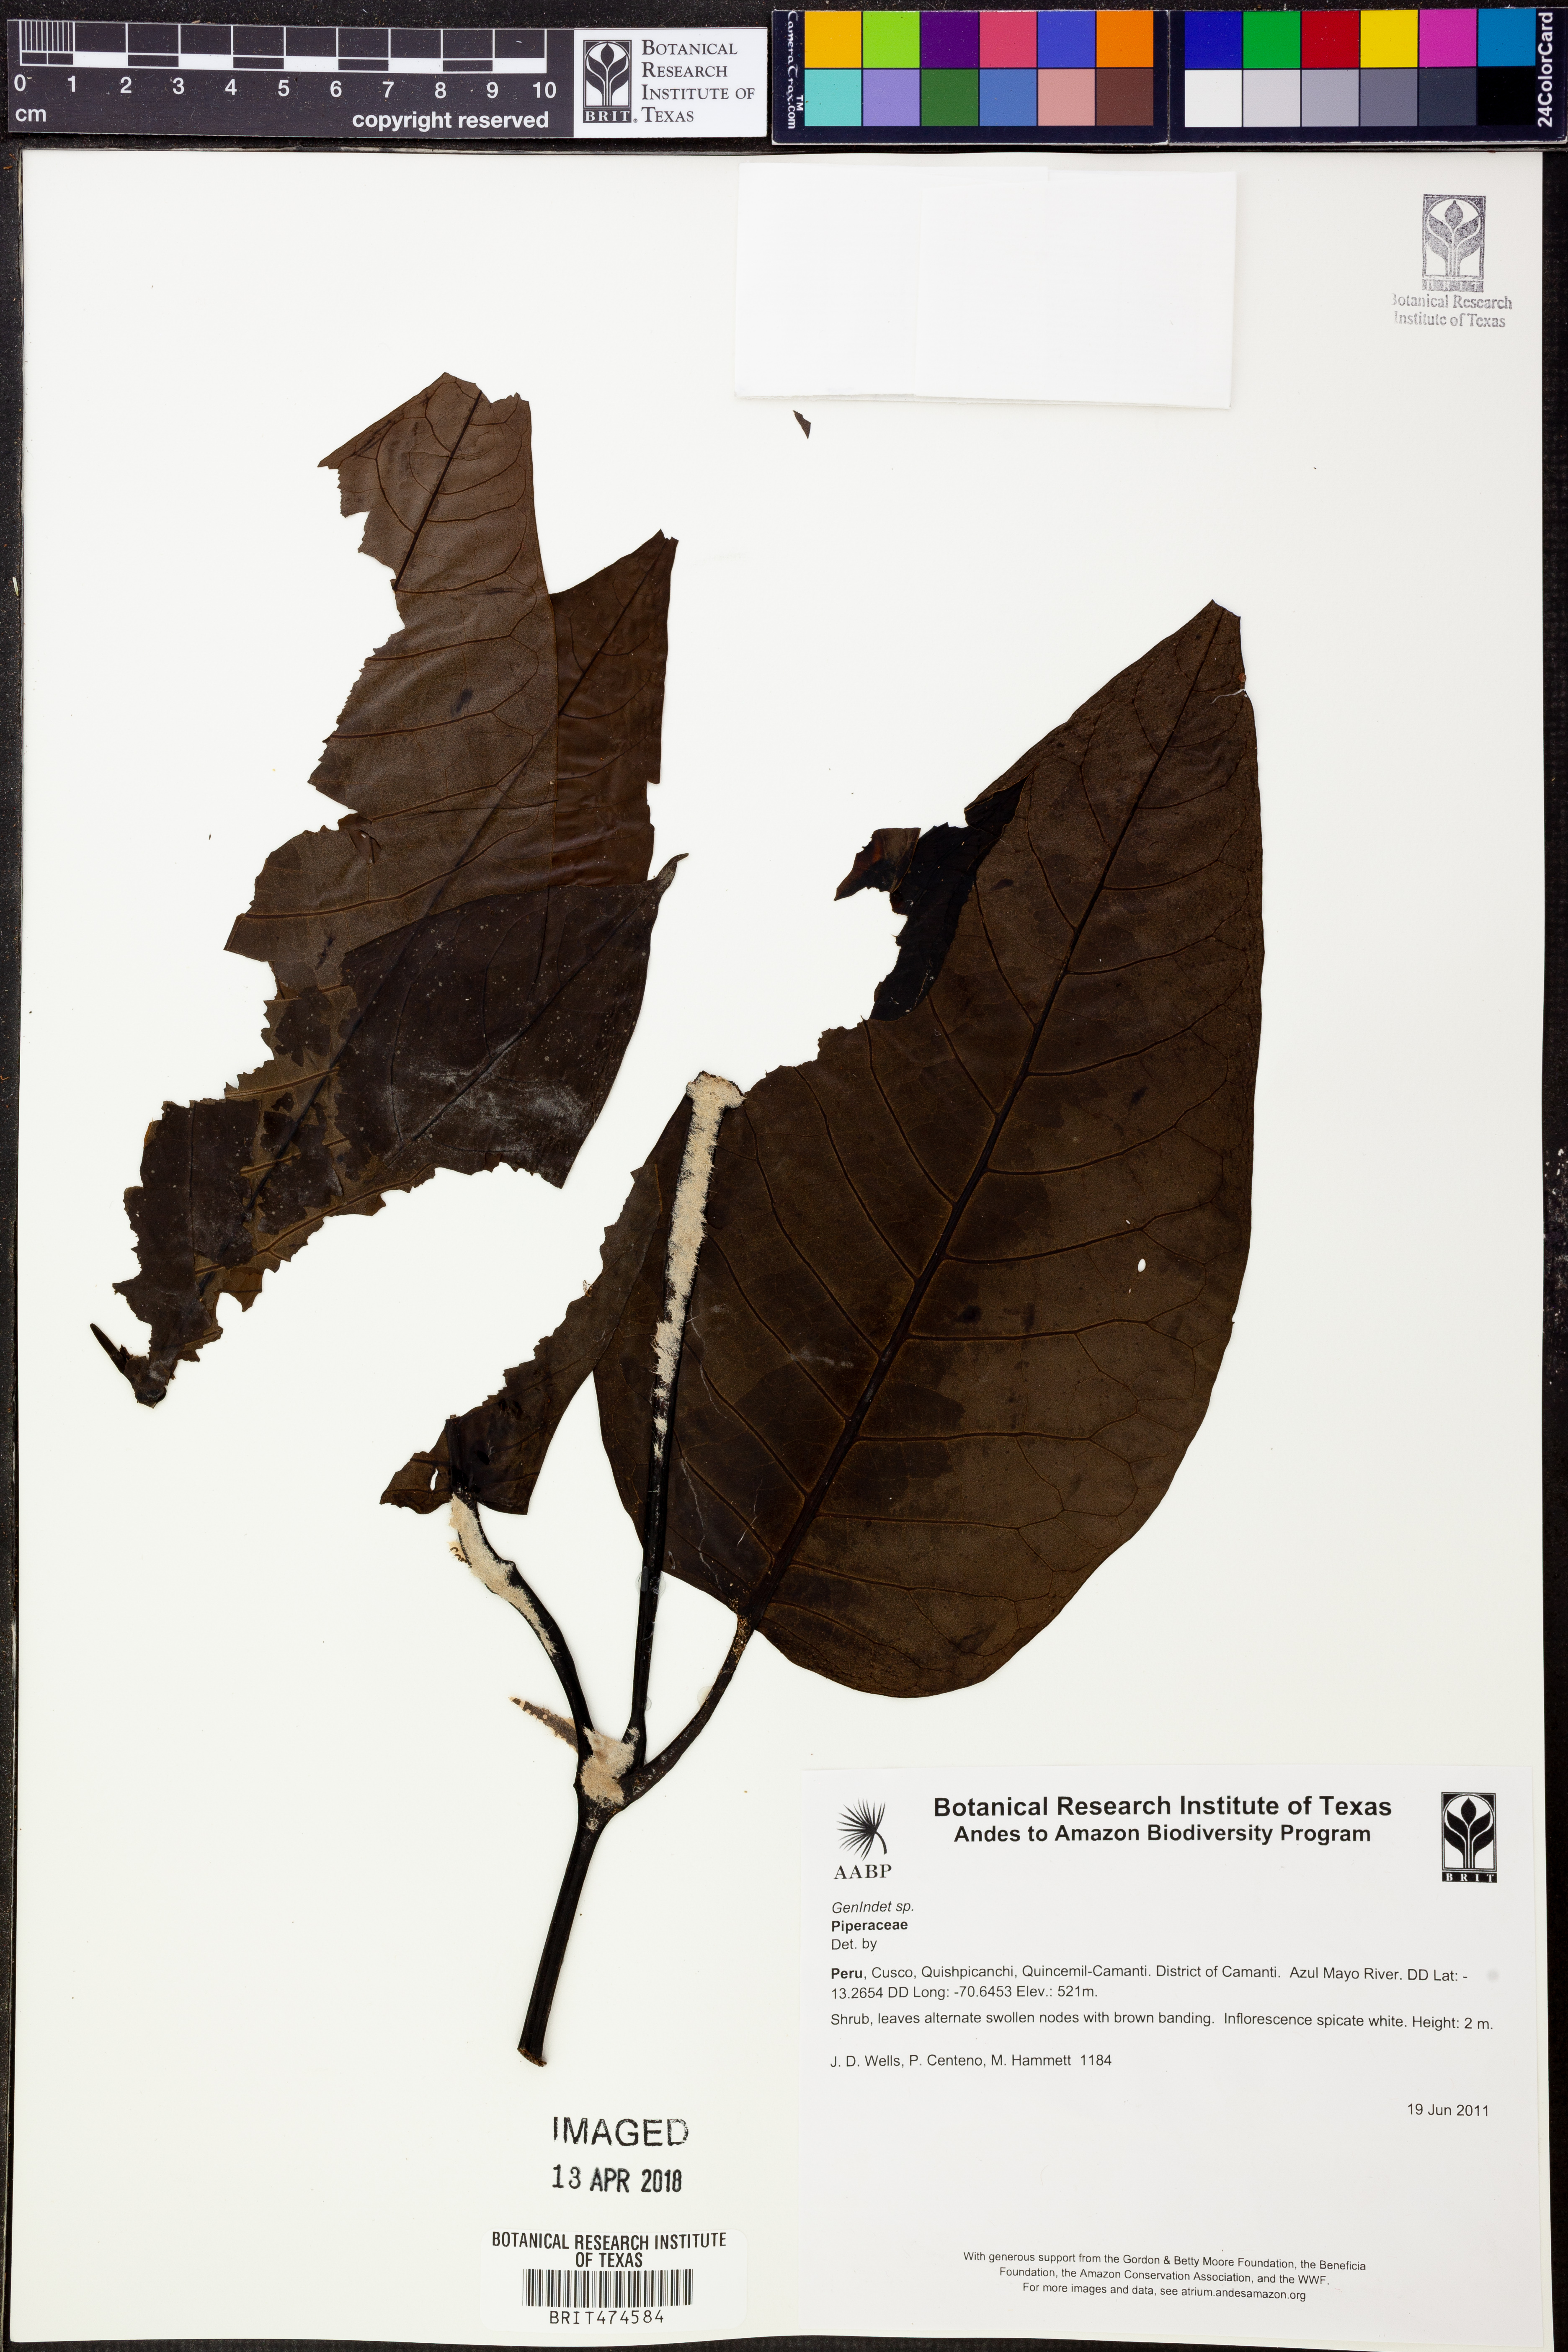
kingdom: Plantae
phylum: Tracheophyta
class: Magnoliopsida
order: Piperales
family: Piperaceae
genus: Piper
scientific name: Piper
